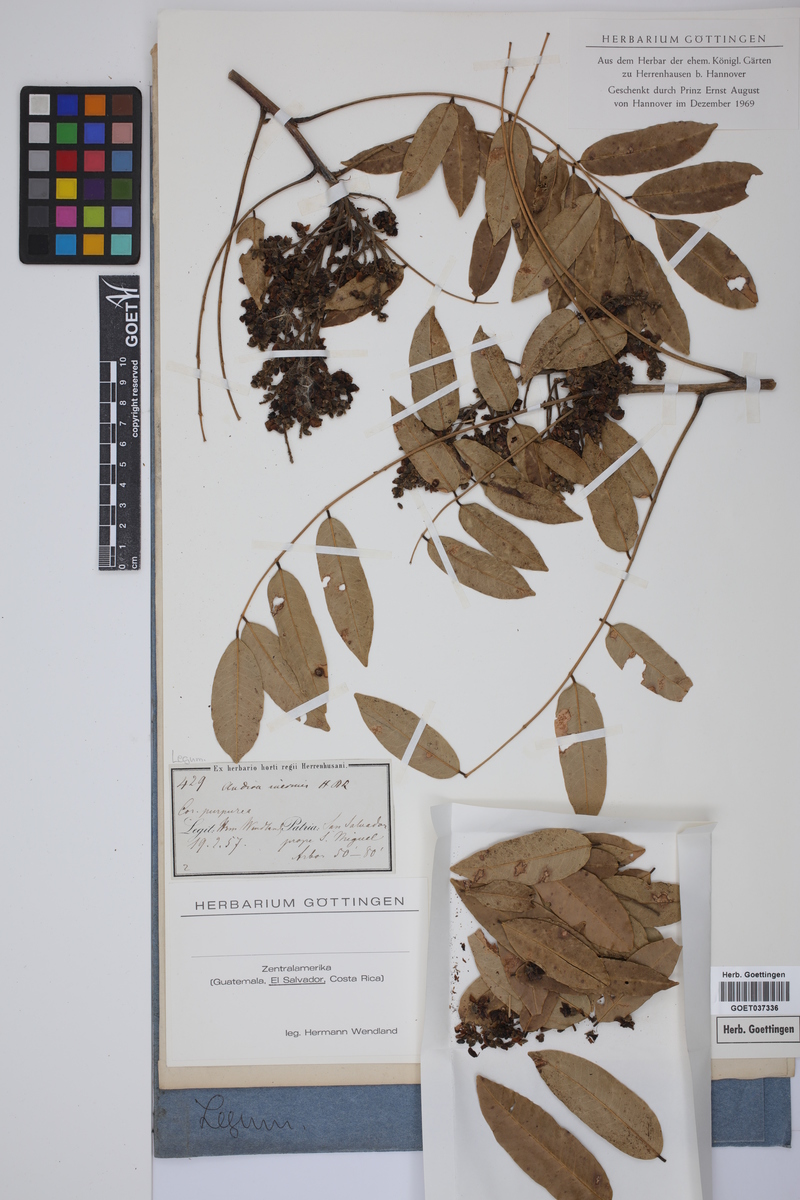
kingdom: Plantae
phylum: Tracheophyta
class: Magnoliopsida
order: Fabales
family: Fabaceae
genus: Andira
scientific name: Andira inermis
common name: Angelin
